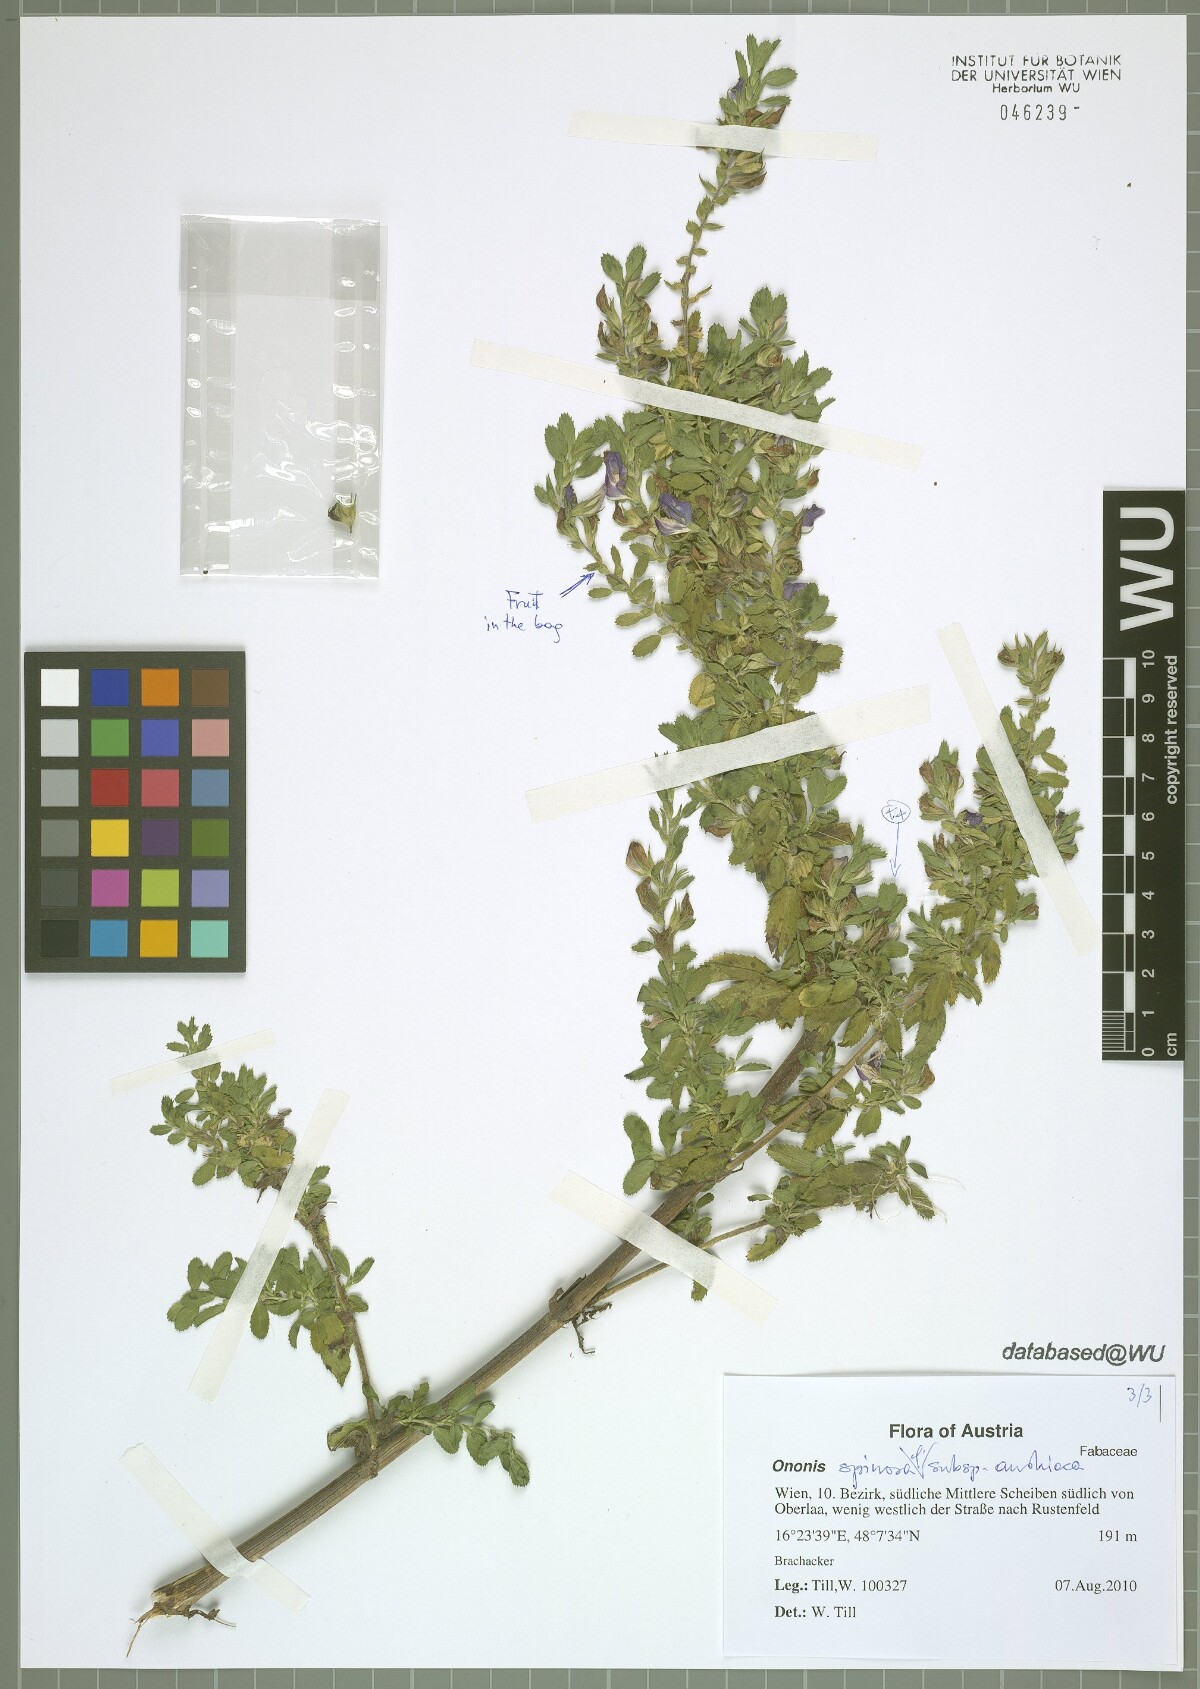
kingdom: Plantae
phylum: Tracheophyta
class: Magnoliopsida
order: Fabales
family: Fabaceae
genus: Ononis
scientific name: Ononis spinosa
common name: Spiny restharrow
